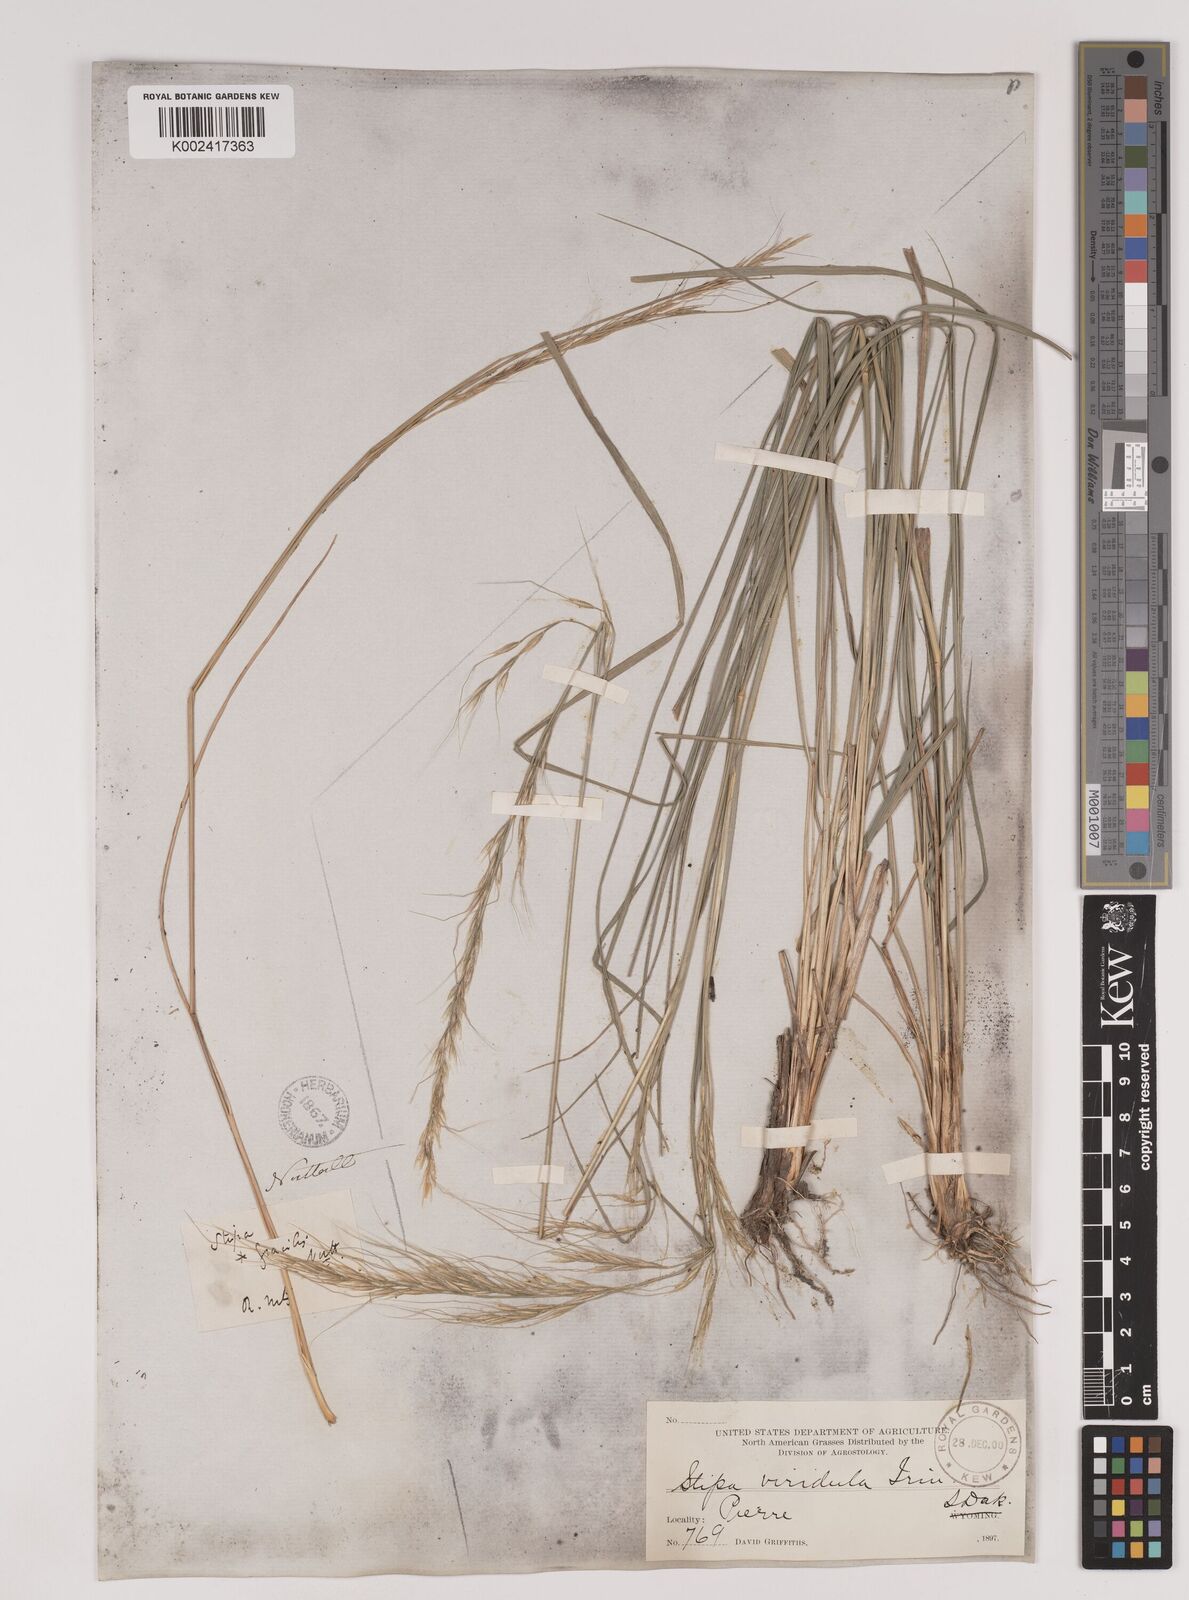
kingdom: Plantae
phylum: Tracheophyta
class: Liliopsida
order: Poales
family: Poaceae
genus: Nassella
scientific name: Nassella viridula
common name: Green needlegrass
